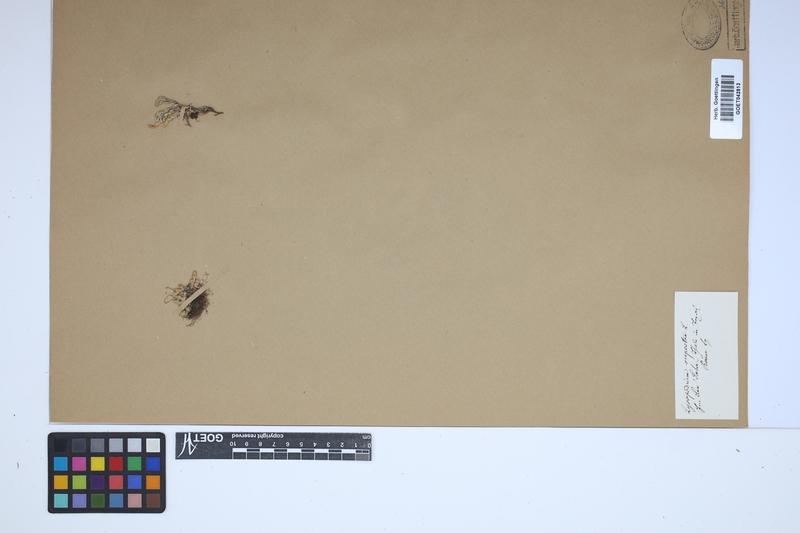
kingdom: Plantae
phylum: Tracheophyta
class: Lycopodiopsida
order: Selaginellales
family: Selaginellaceae
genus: Selaginella
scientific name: Selaginella rupestris
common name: Dwarf spikemoss
